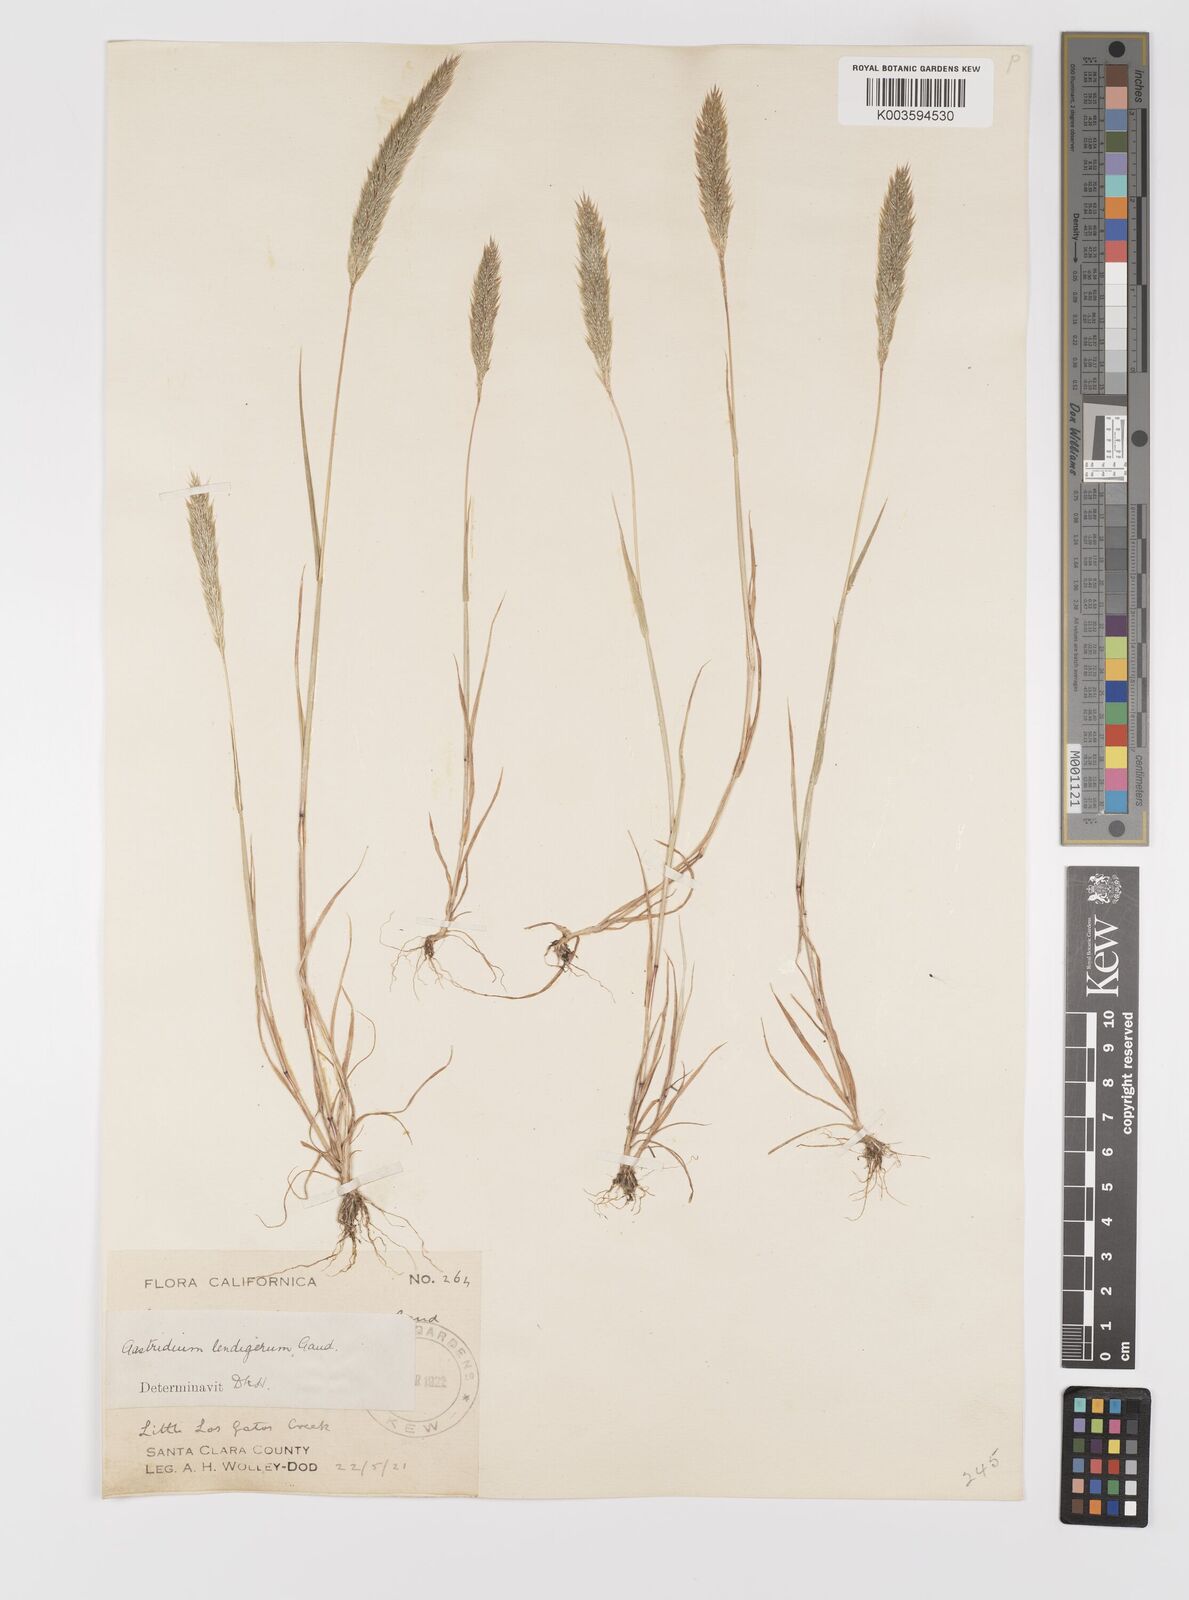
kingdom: Plantae
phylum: Tracheophyta
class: Liliopsida
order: Poales
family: Poaceae
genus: Gastridium
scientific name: Gastridium phleoides
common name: Nit grass
